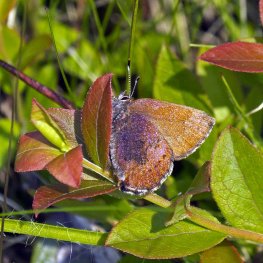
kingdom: Animalia
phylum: Arthropoda
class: Insecta
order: Lepidoptera
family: Lycaenidae
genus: Incisalia
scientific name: Incisalia irioides
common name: Brown Elfin
